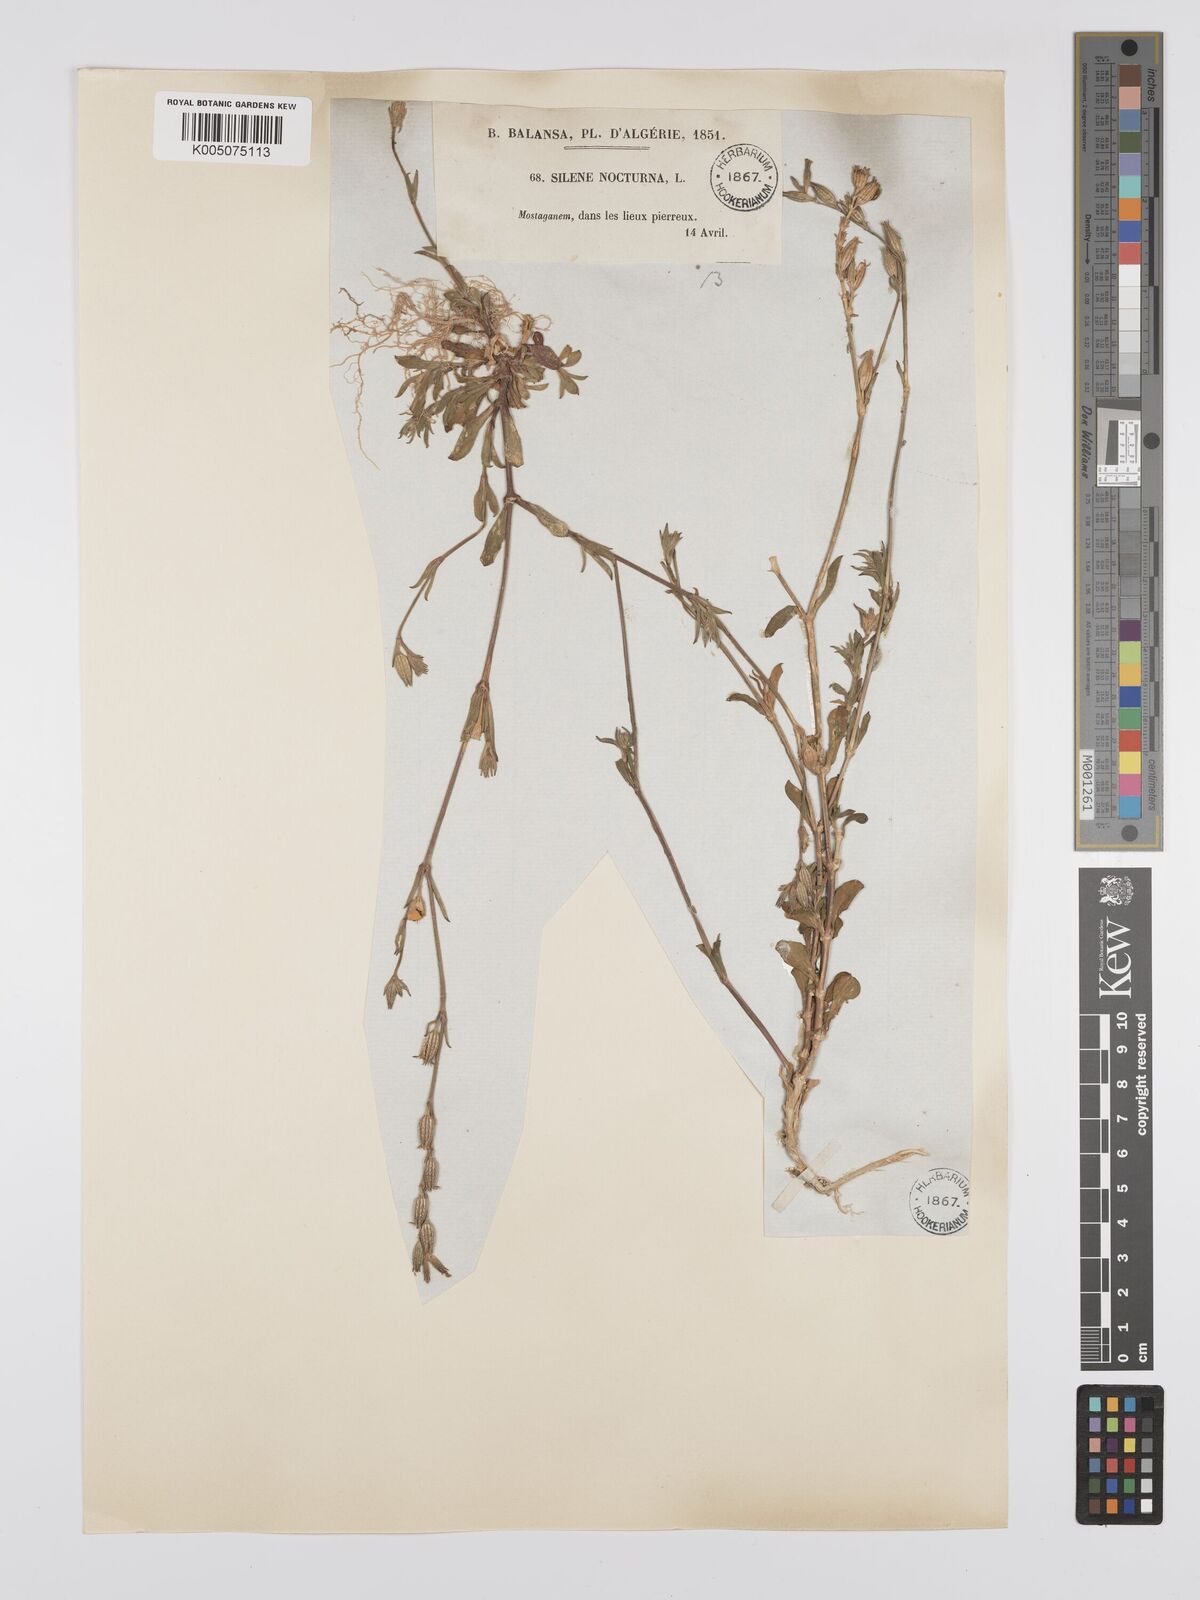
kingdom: Plantae
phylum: Tracheophyta
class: Magnoliopsida
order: Caryophyllales
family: Caryophyllaceae
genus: Silene
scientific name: Silene nocturna
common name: Mediterranean catchfly
